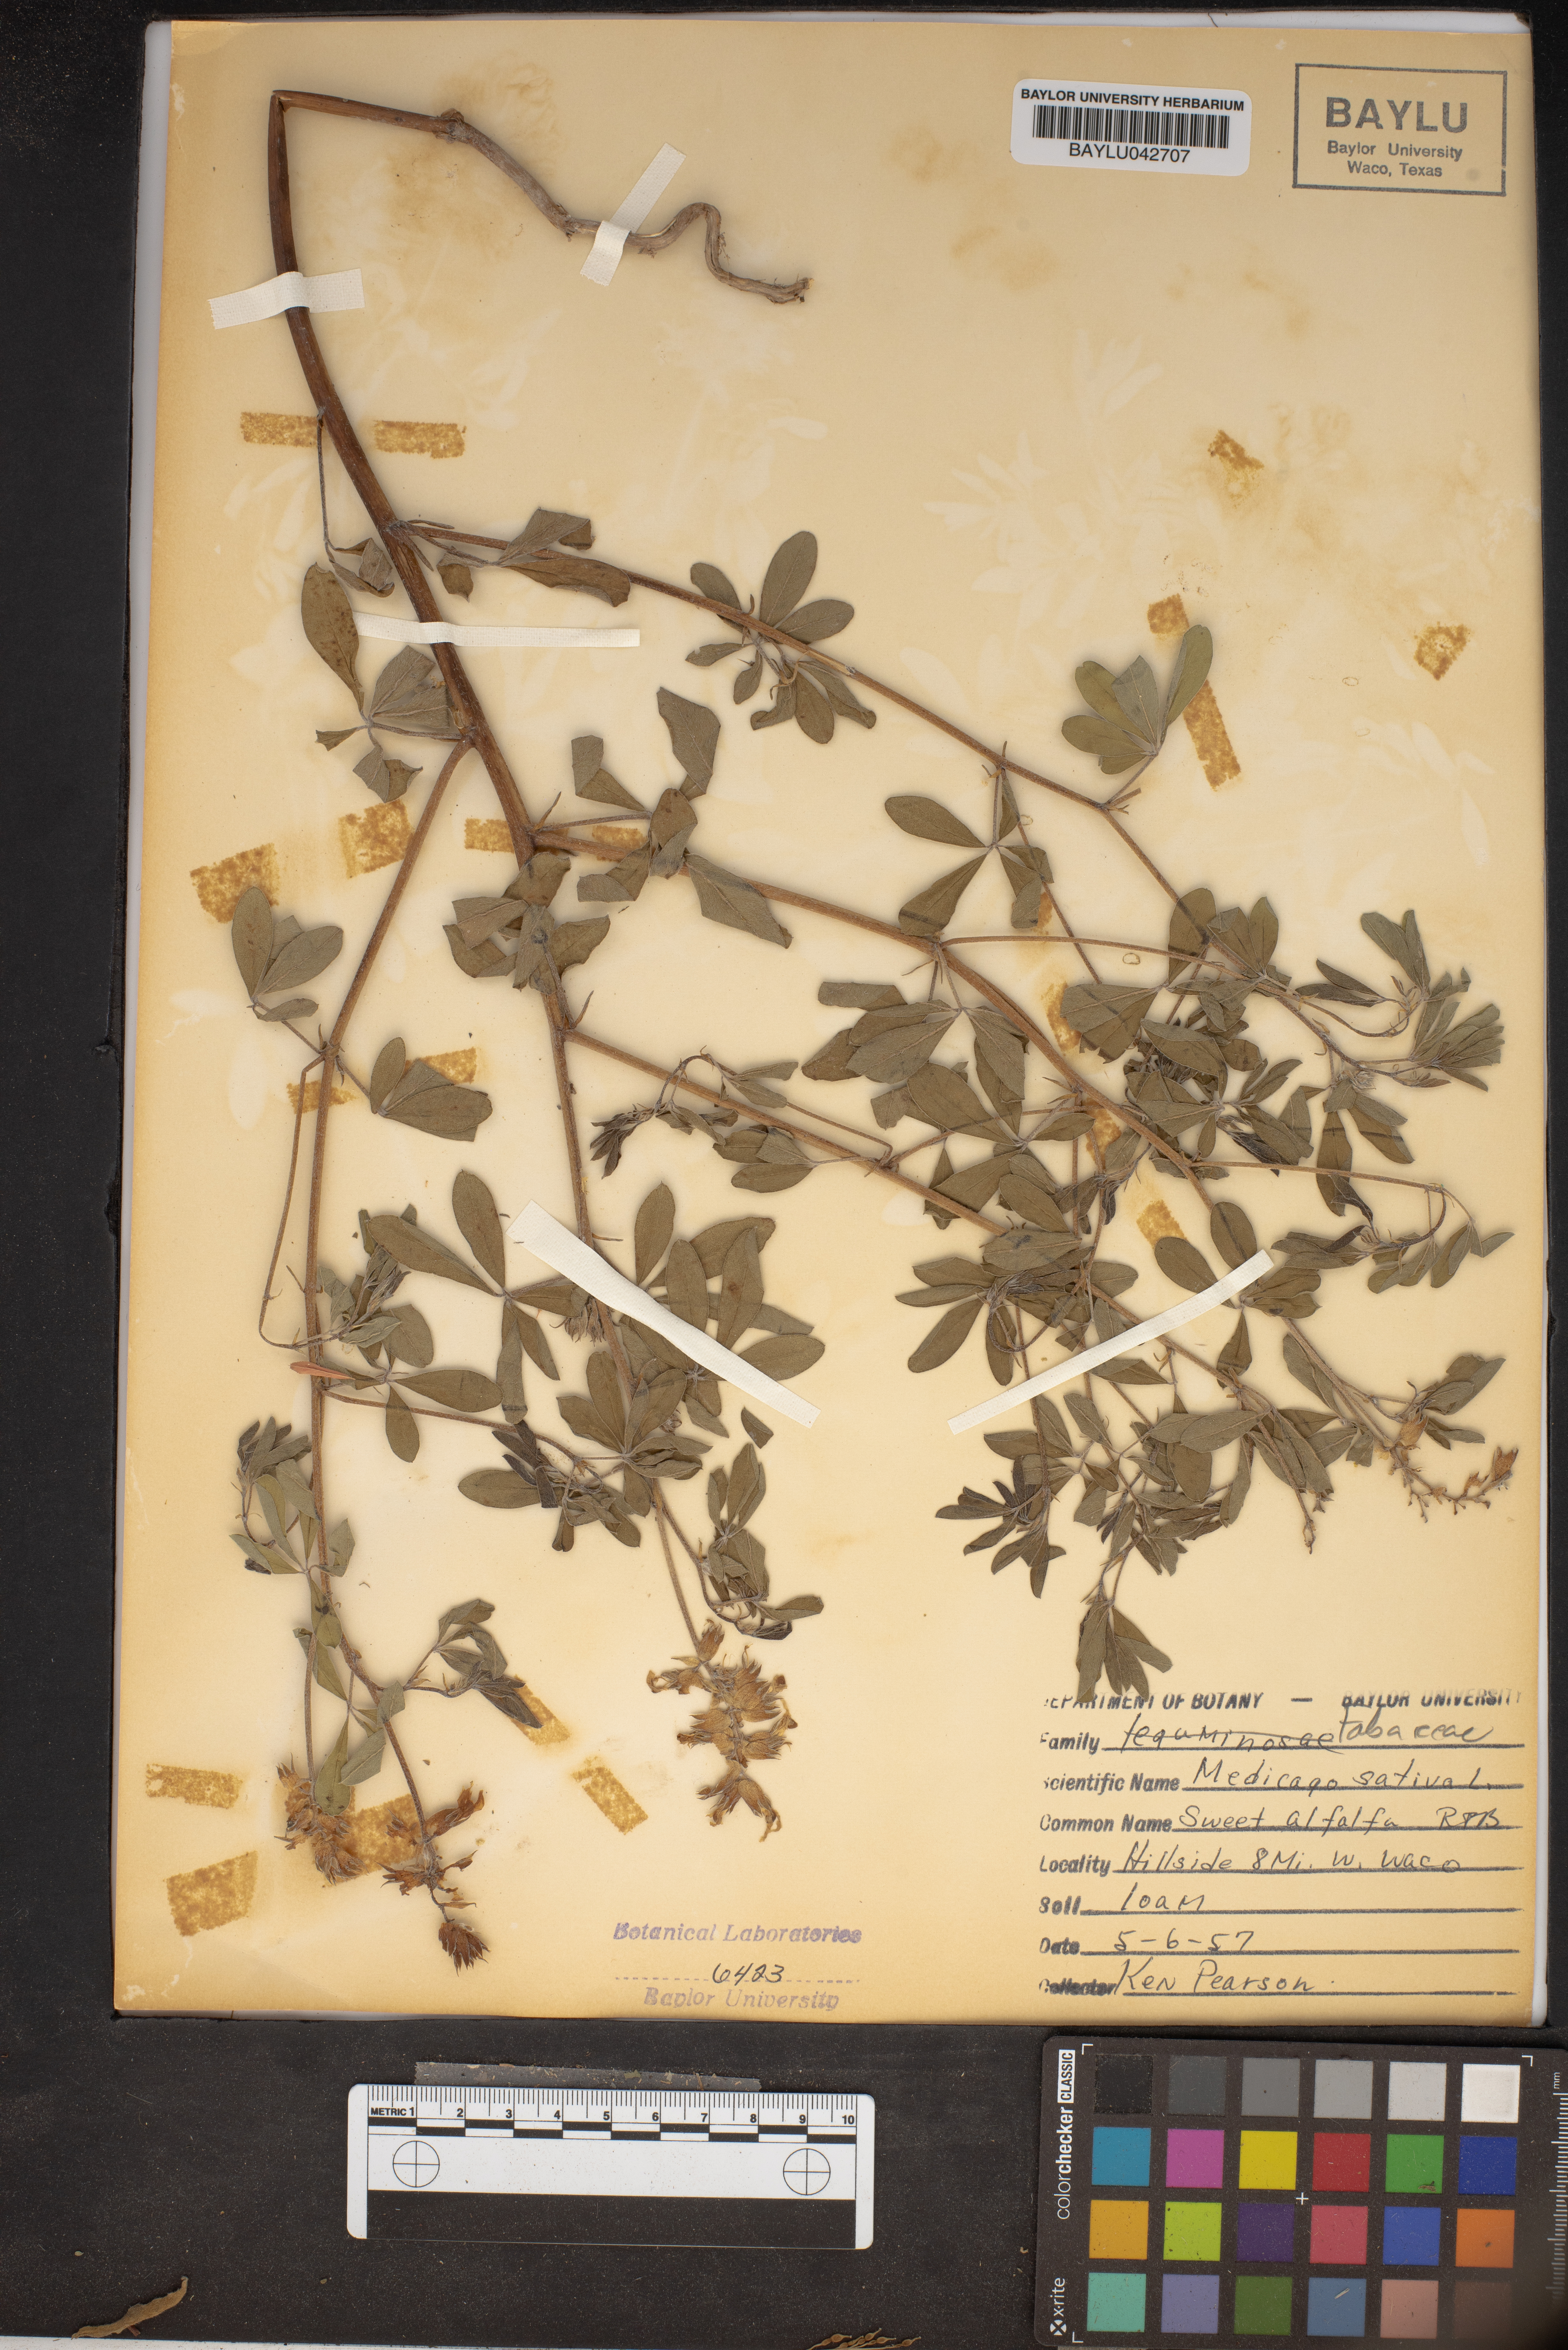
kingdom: Plantae
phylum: Tracheophyta
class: Magnoliopsida
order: Fabales
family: Fabaceae
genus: Medicago
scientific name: Medicago sativa
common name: Alfalfa
